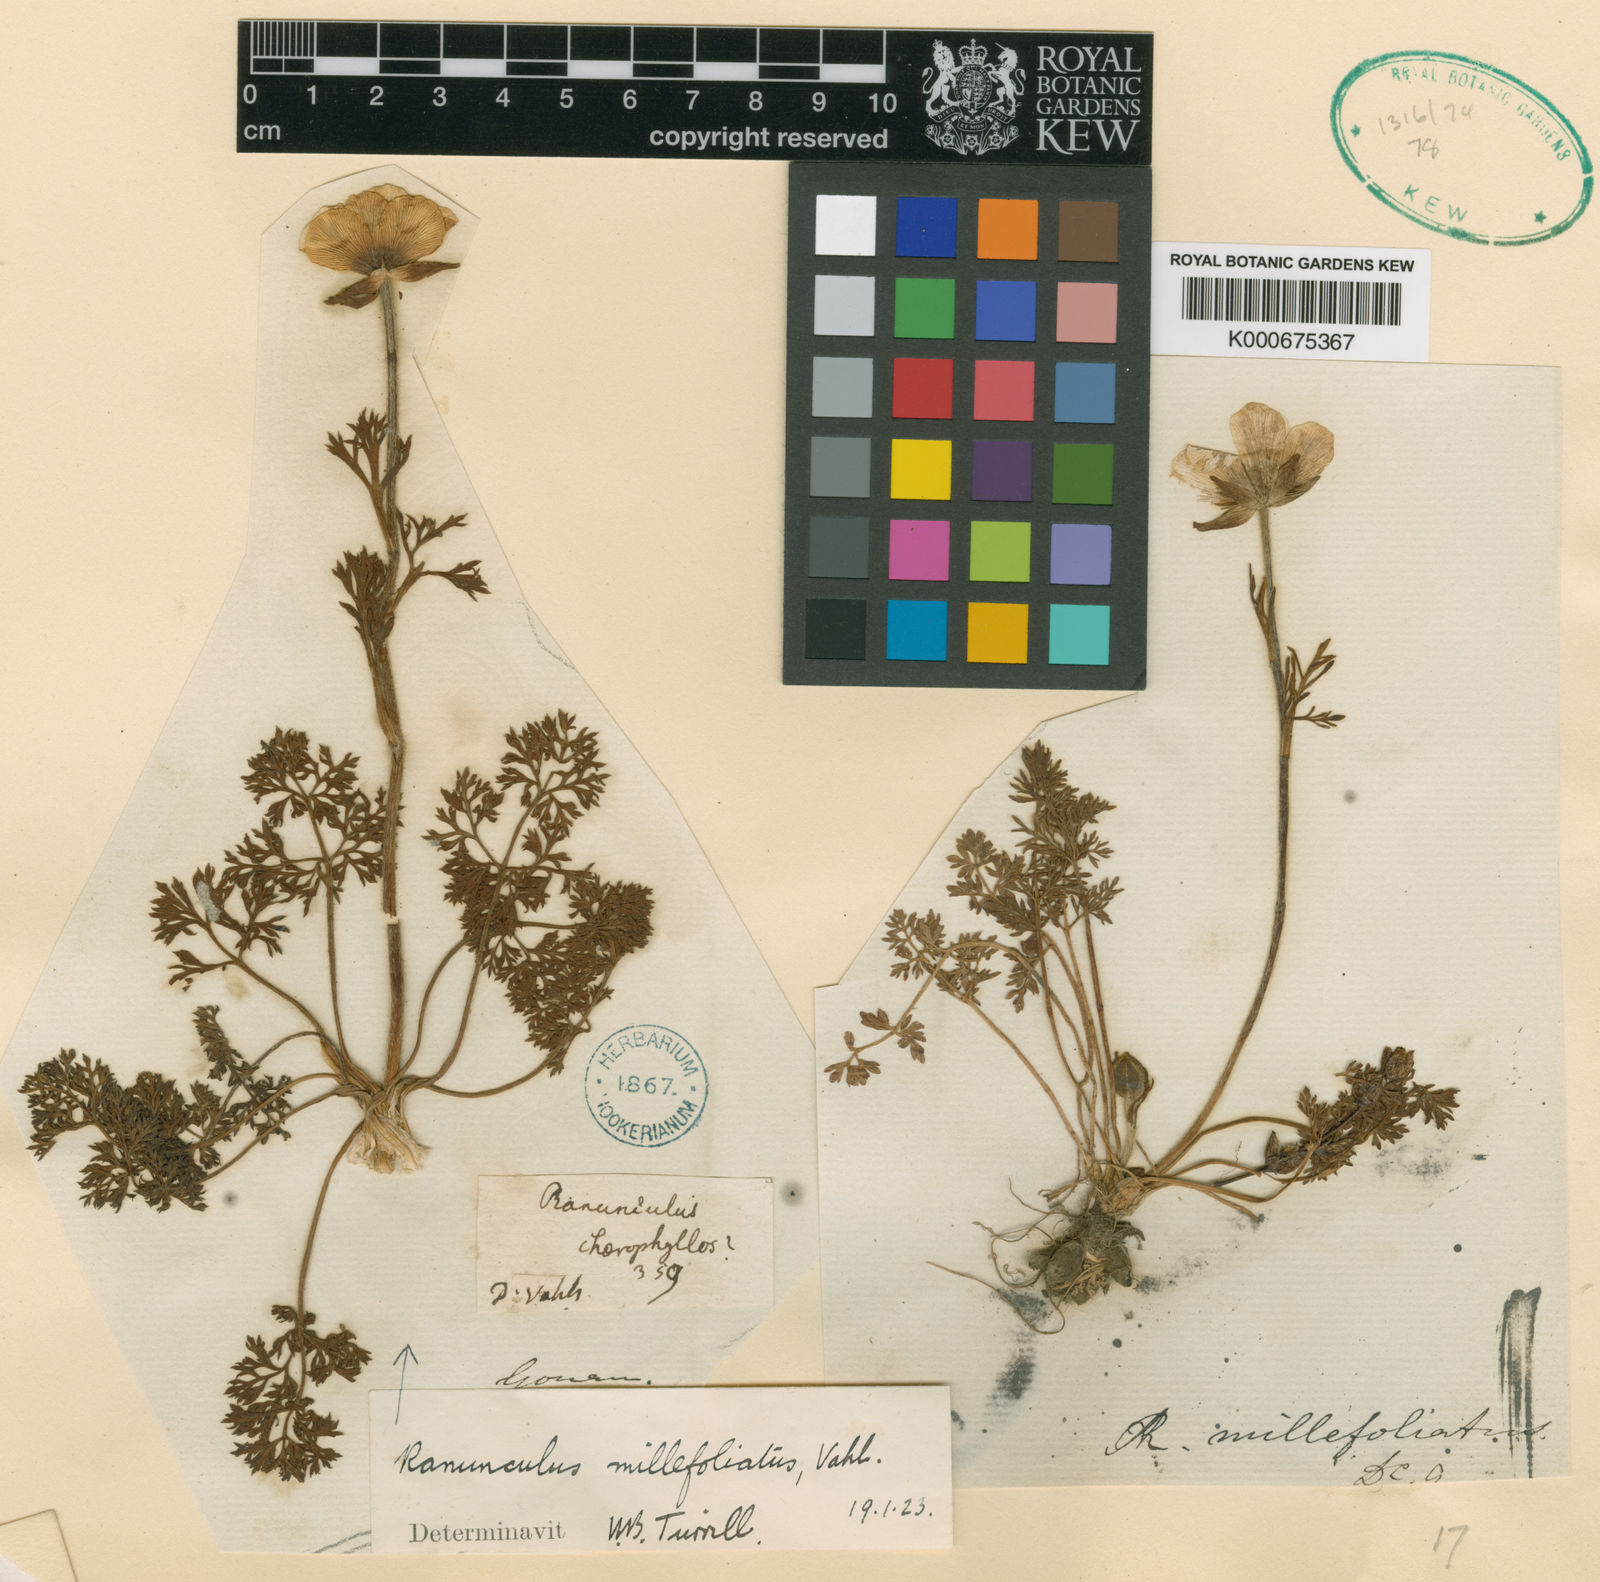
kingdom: Plantae
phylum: Tracheophyta
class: Magnoliopsida
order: Ranunculales
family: Ranunculaceae
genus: Ranunculus
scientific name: Ranunculus millefoliatus
